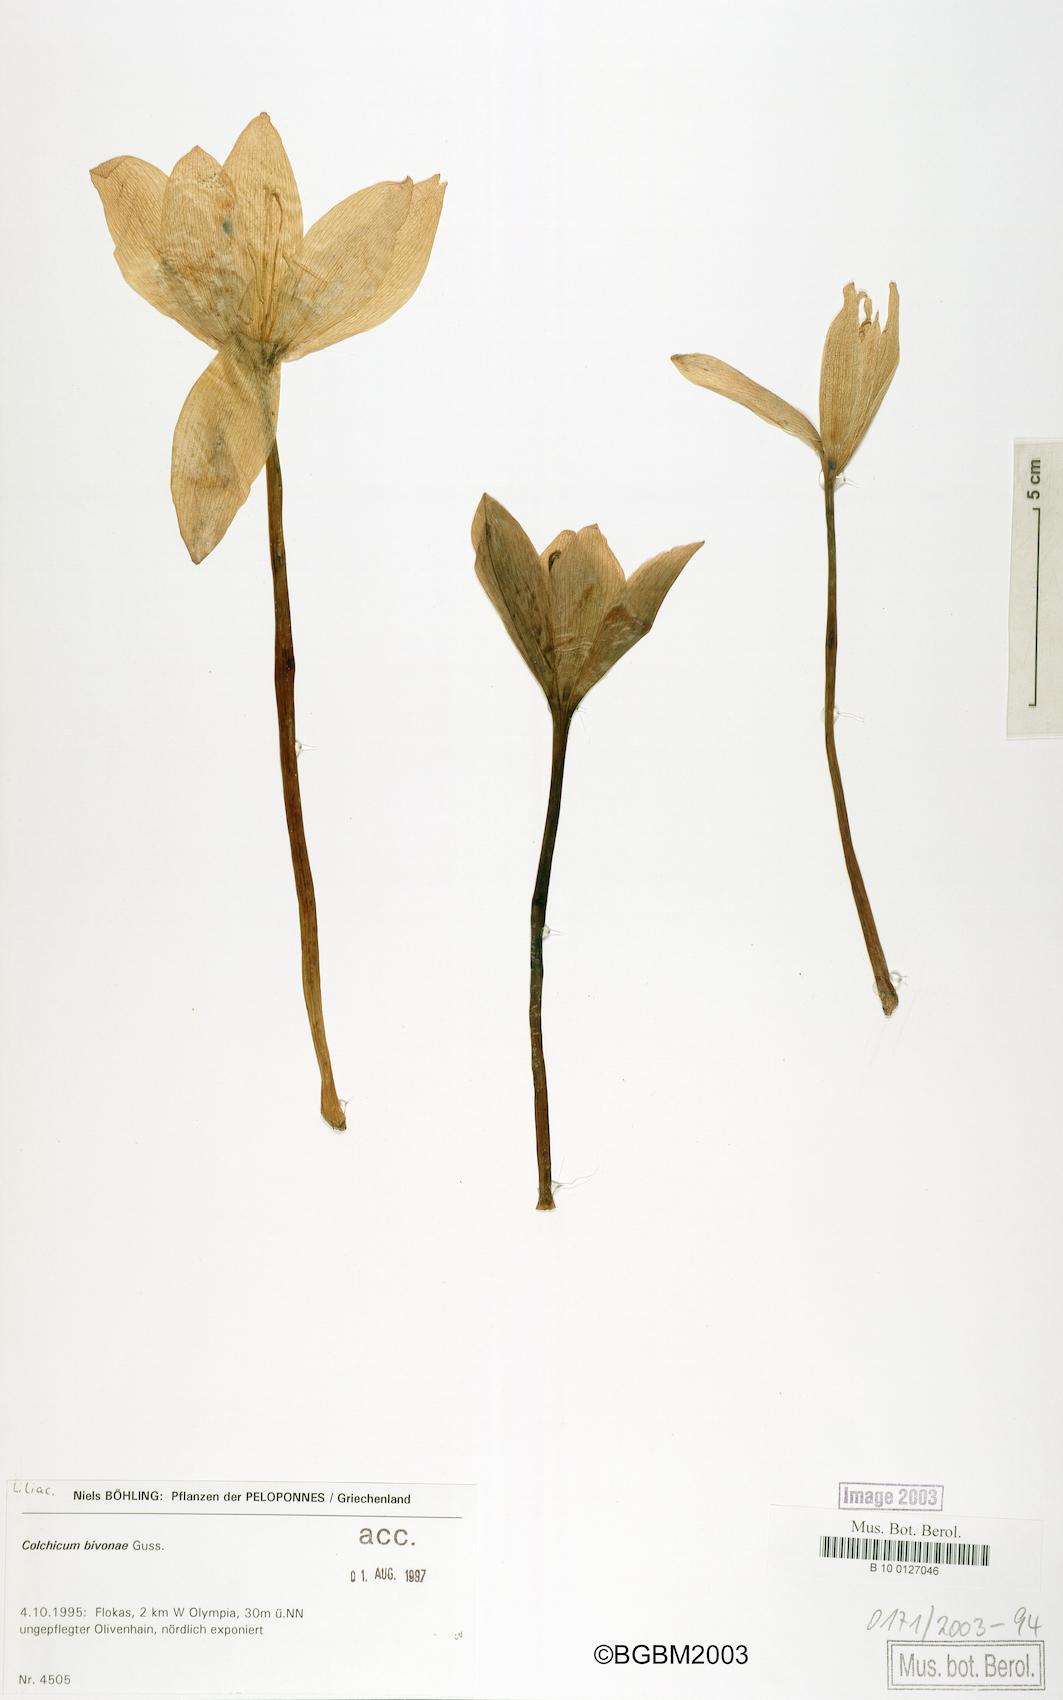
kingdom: Plantae
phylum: Tracheophyta
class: Liliopsida
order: Liliales
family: Colchicaceae
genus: Colchicum
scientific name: Colchicum bivonae
